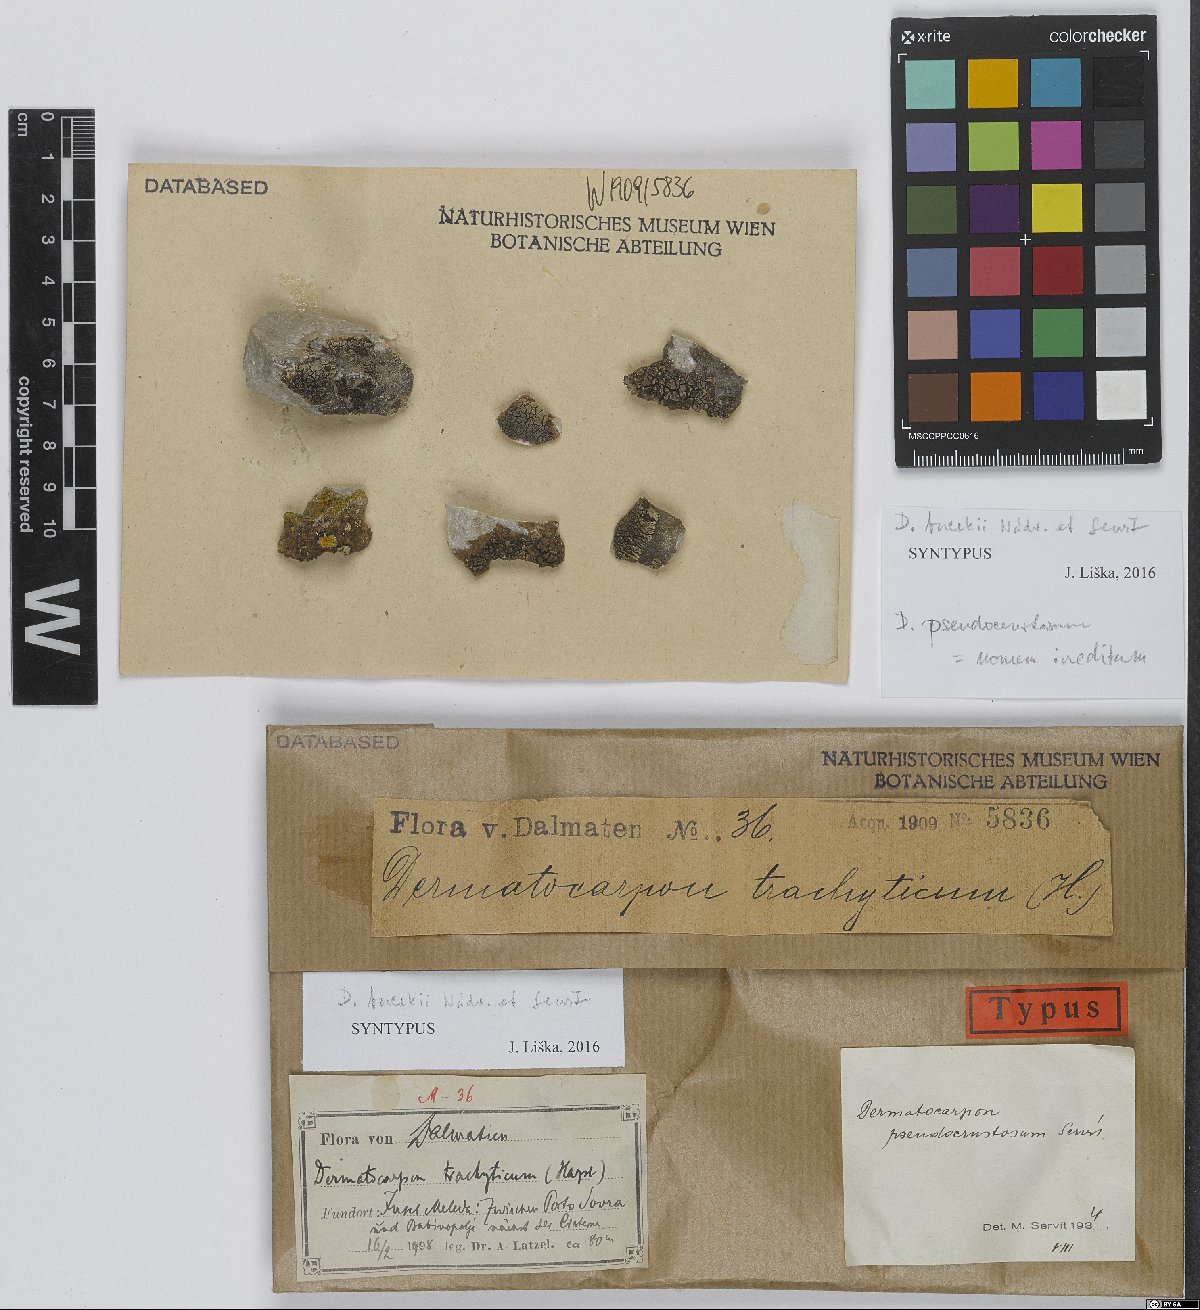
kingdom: Fungi
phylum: Ascomycota
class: Eurotiomycetes
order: Verrucariales
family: Verrucariaceae
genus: Placopyrenium
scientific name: Placopyrenium bucekii
